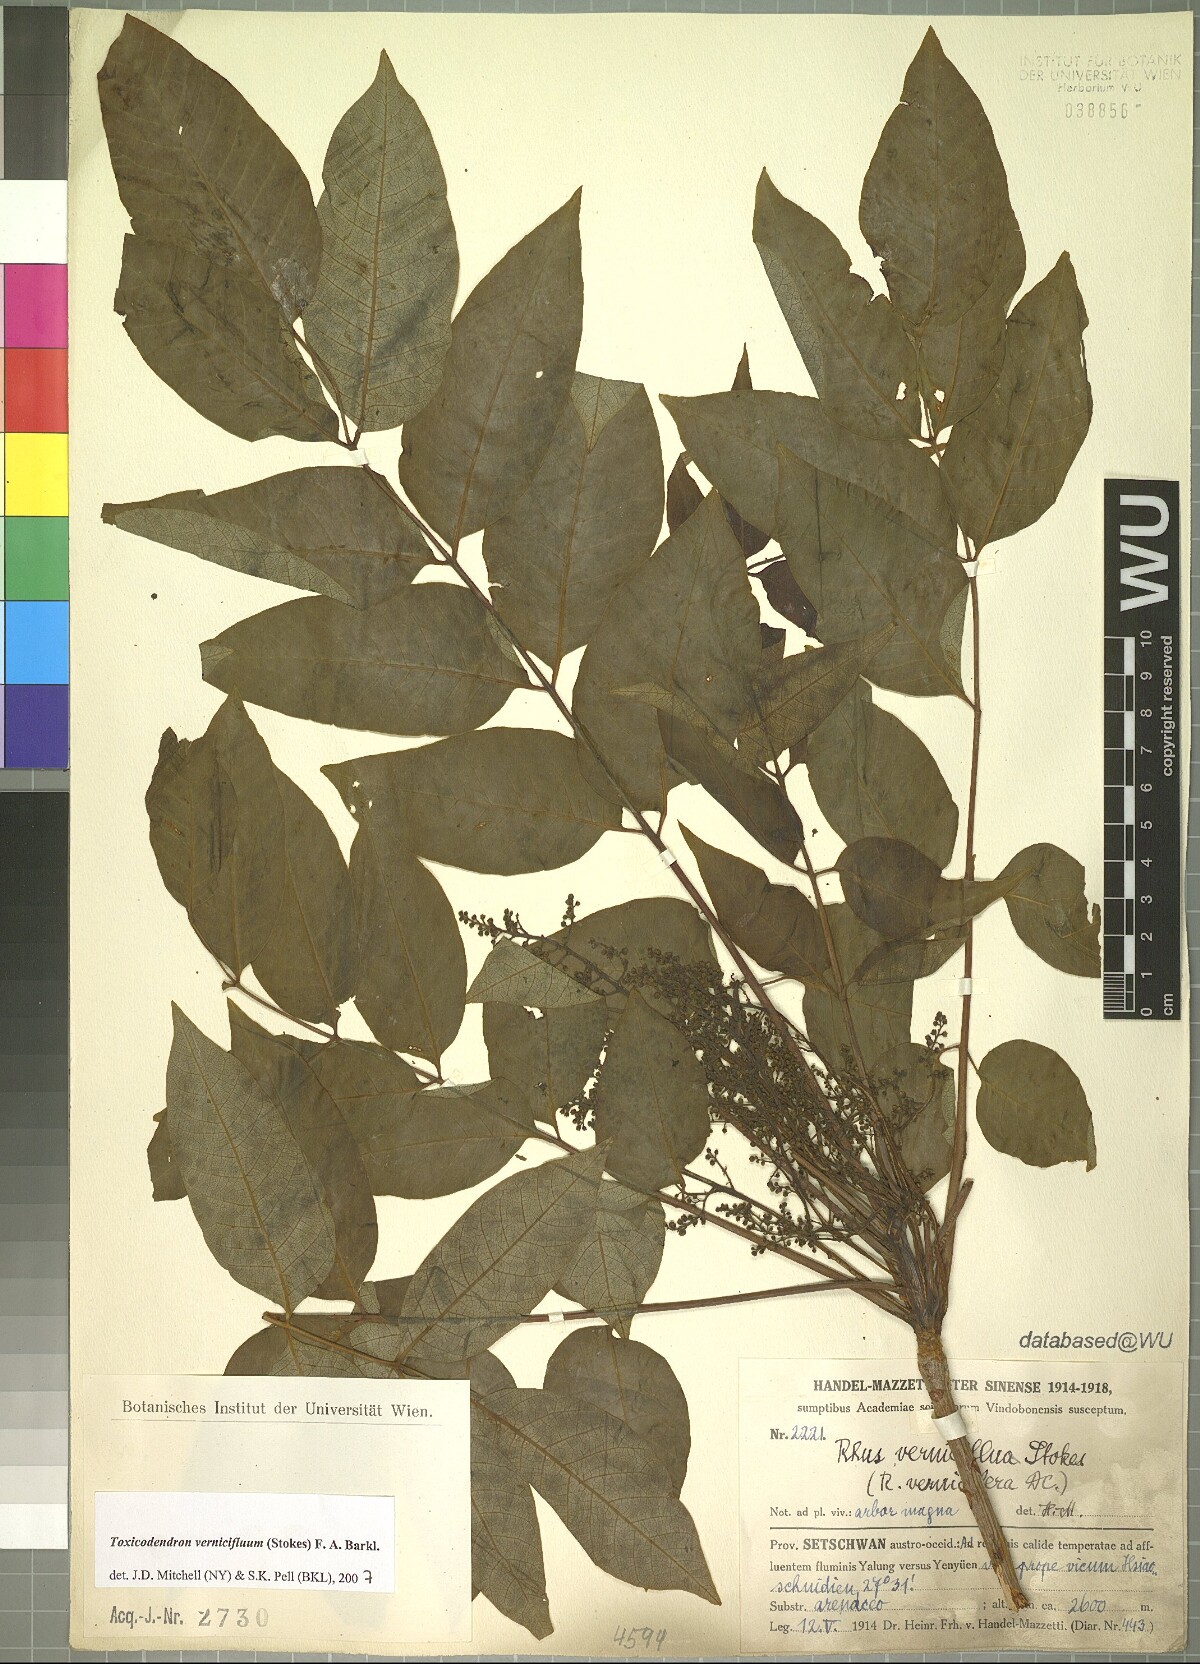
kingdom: Plantae
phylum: Tracheophyta
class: Magnoliopsida
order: Sapindales
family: Anacardiaceae
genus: Toxicodendron
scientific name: Toxicodendron vernicifluum
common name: Japanese lacquertree
